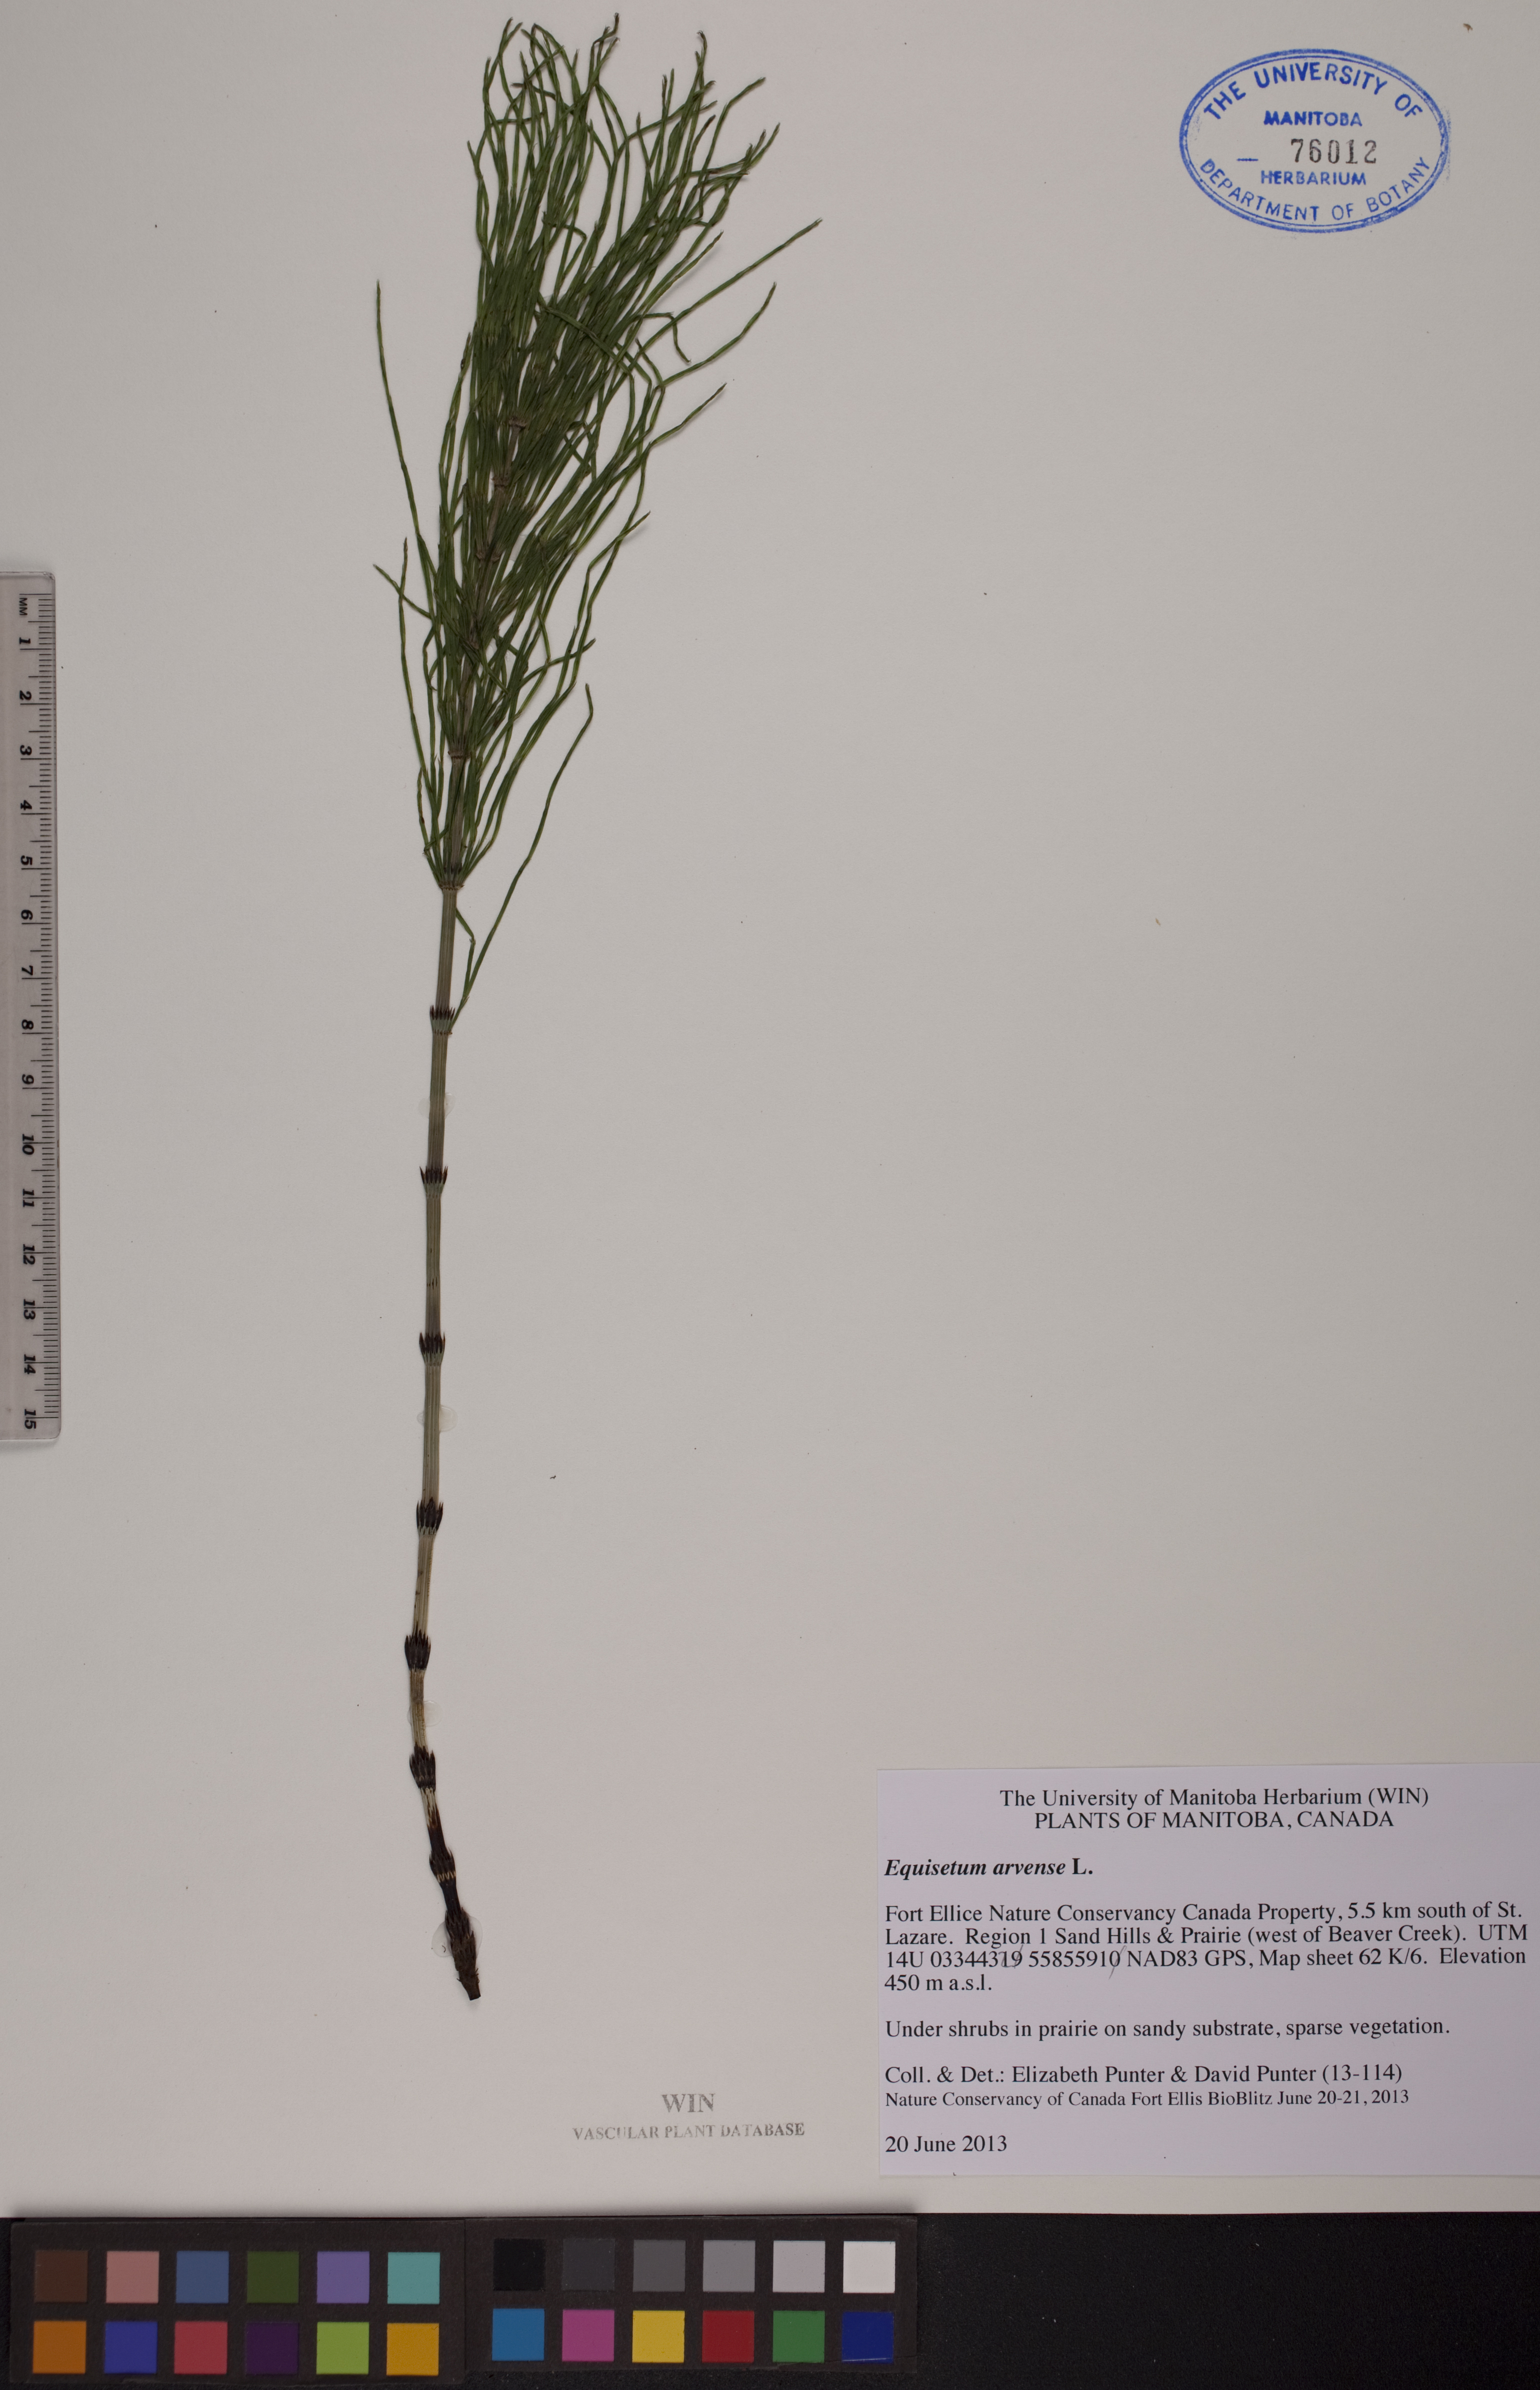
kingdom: Plantae
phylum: Tracheophyta
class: Polypodiopsida
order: Equisetales
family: Equisetaceae
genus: Equisetum
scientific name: Equisetum arvense
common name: Field horsetail
